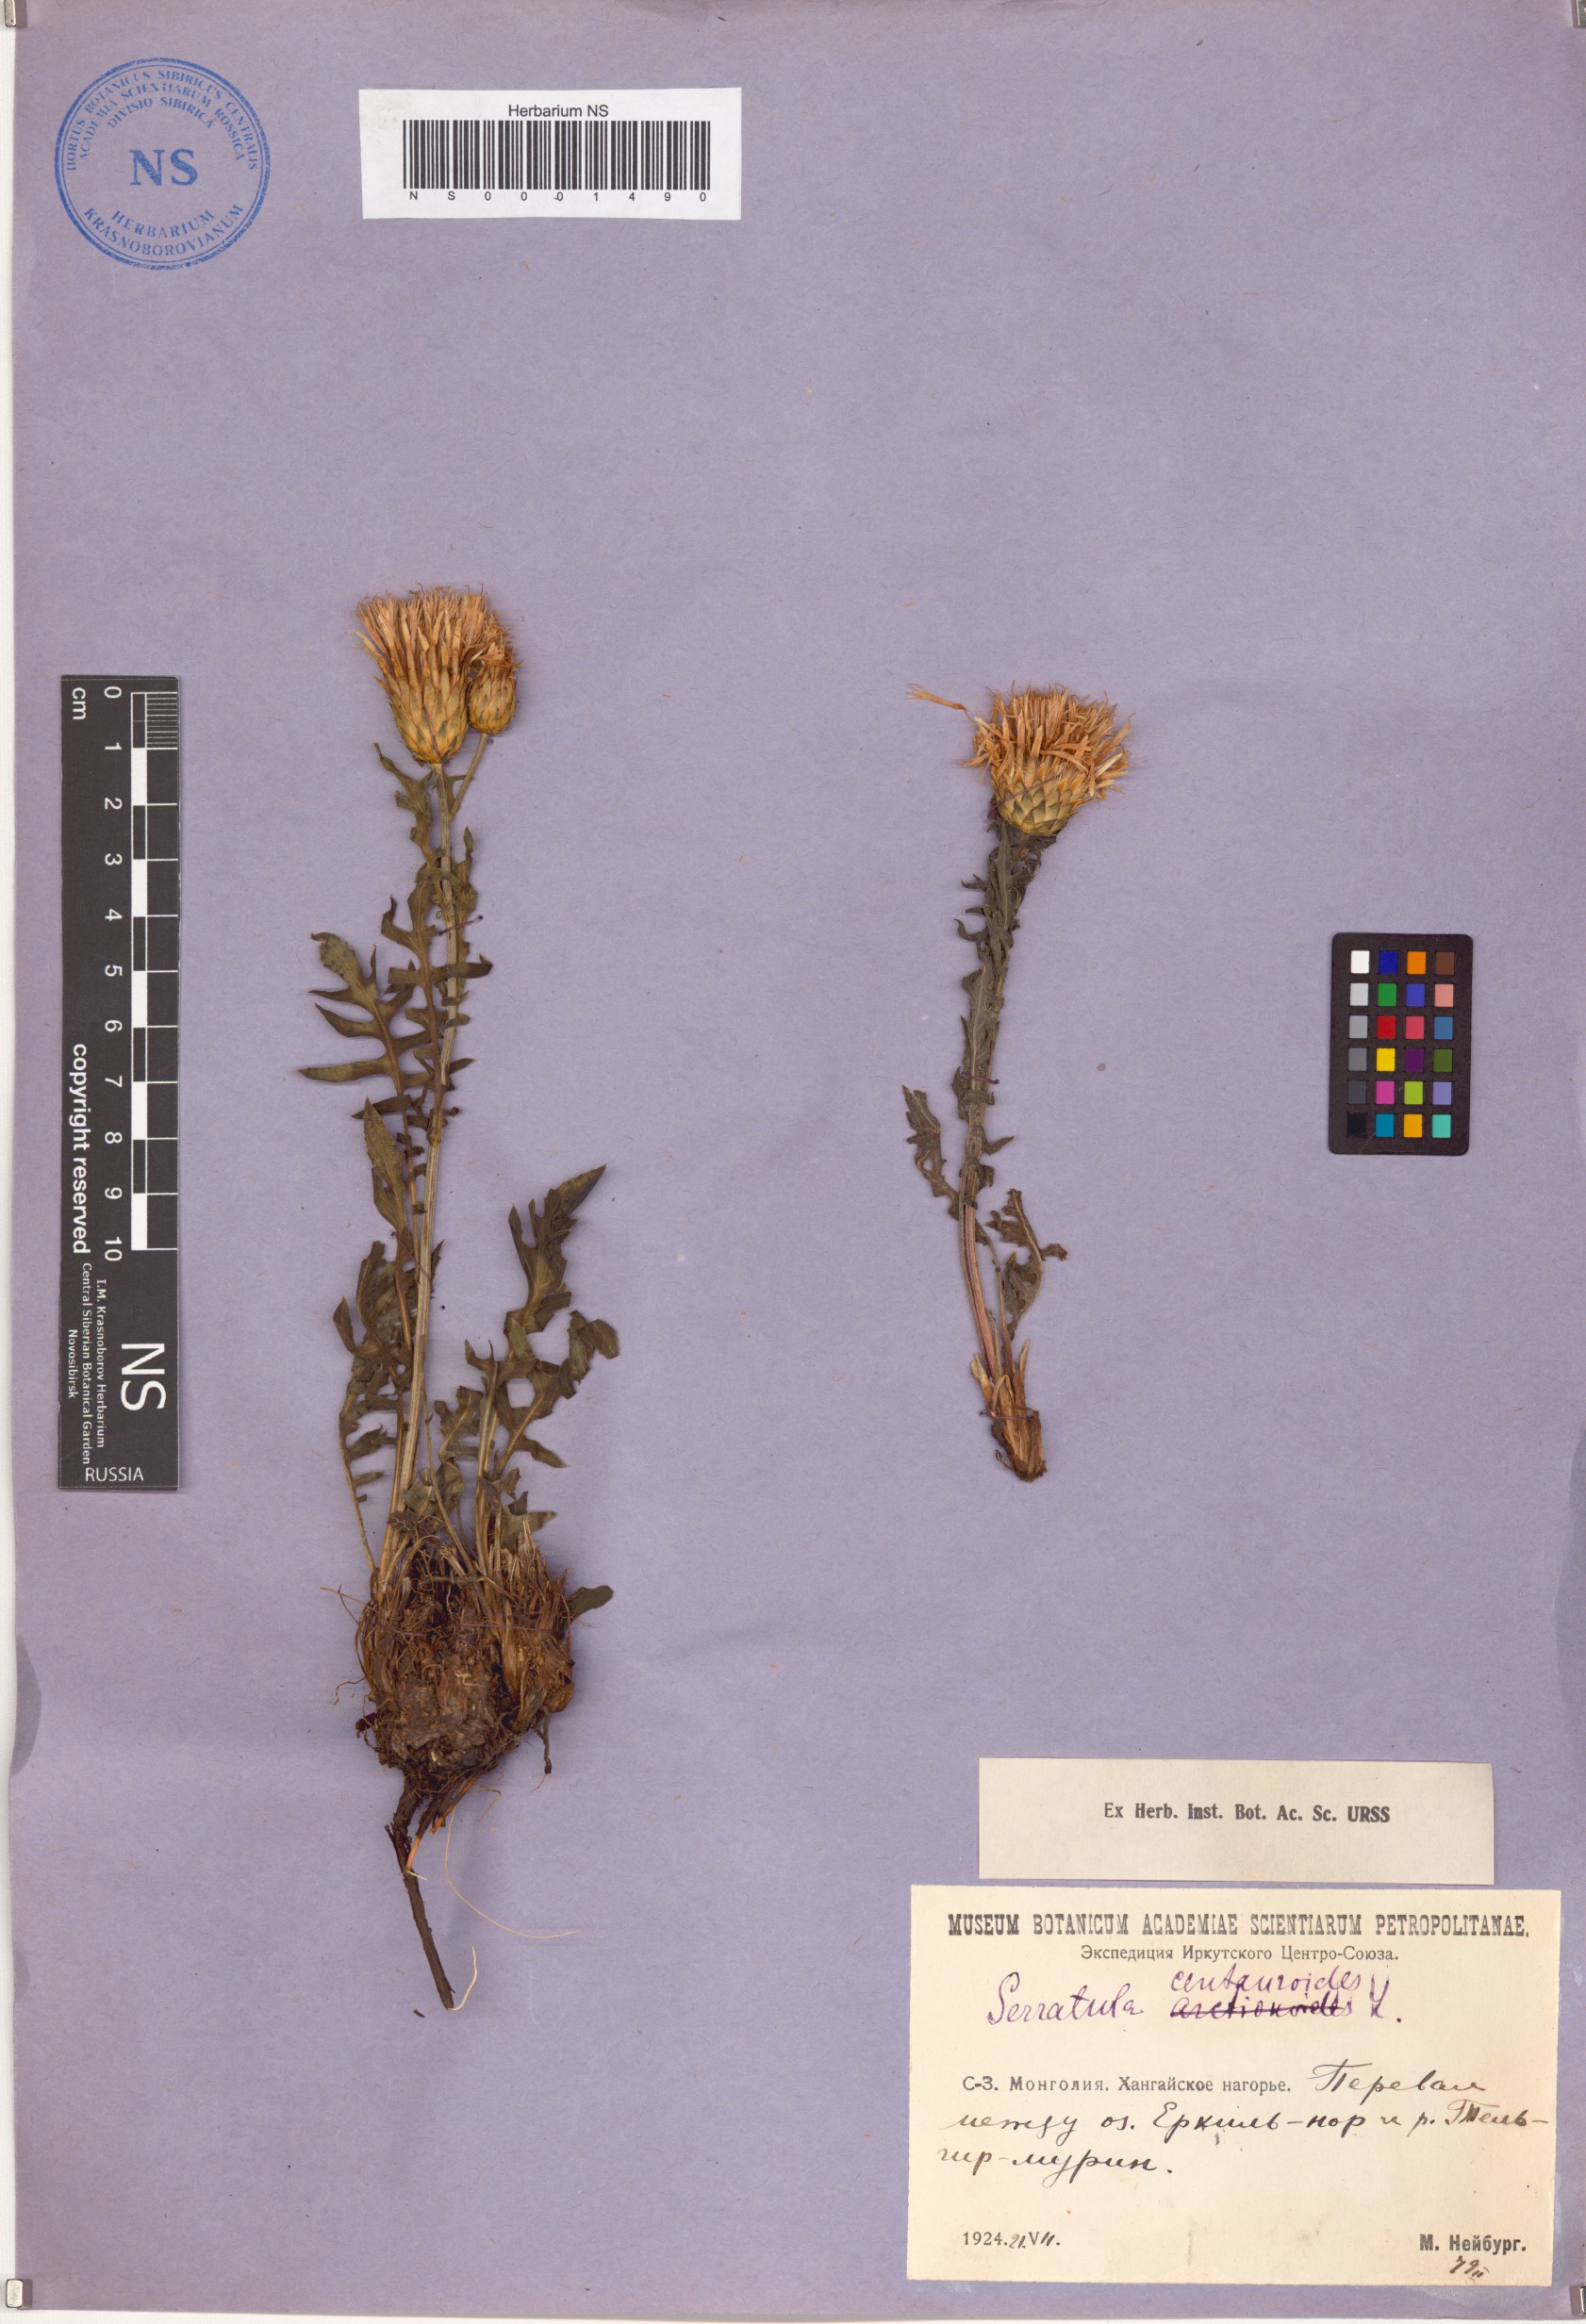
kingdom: Plantae
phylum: Tracheophyta
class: Magnoliopsida
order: Asterales
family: Asteraceae
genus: Klasea
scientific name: Klasea centauroides
